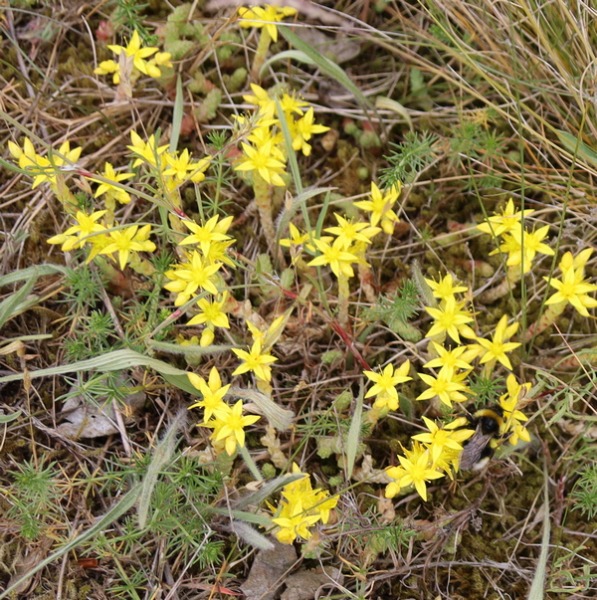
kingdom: Plantae
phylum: Tracheophyta
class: Magnoliopsida
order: Saxifragales
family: Crassulaceae
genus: Sedum
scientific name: Sedum acre
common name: Bidende stenurt
